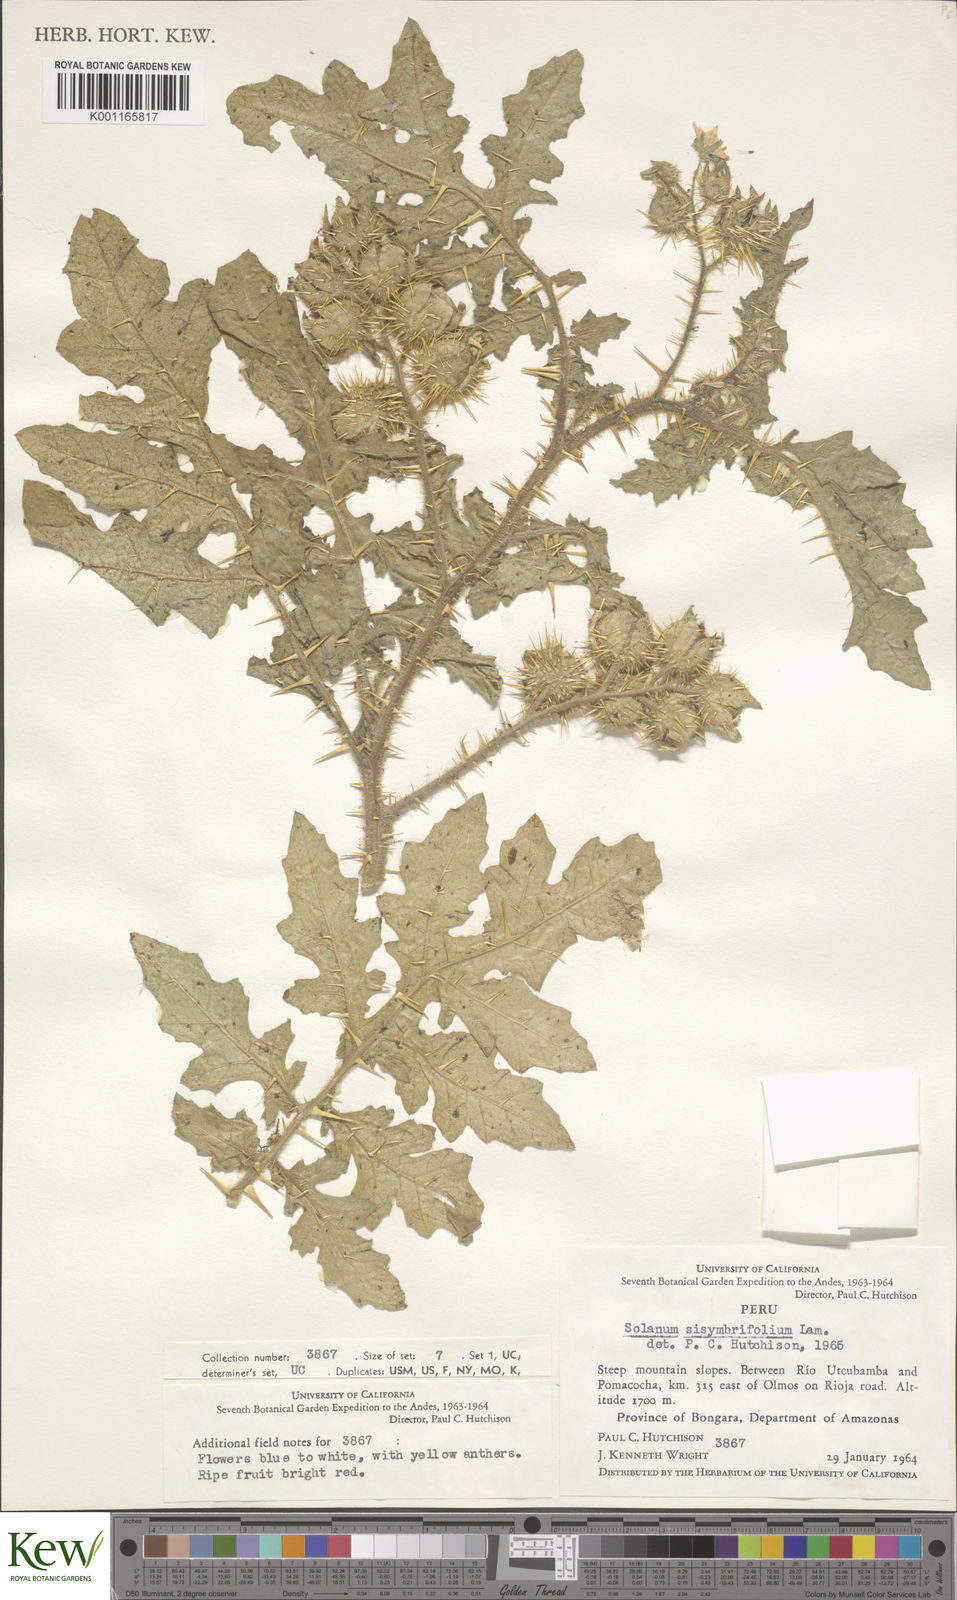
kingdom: Plantae
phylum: Tracheophyta
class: Magnoliopsida
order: Solanales
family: Solanaceae
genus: Solanum
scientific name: Solanum sisymbriifolium
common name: Red buffalo-bur
